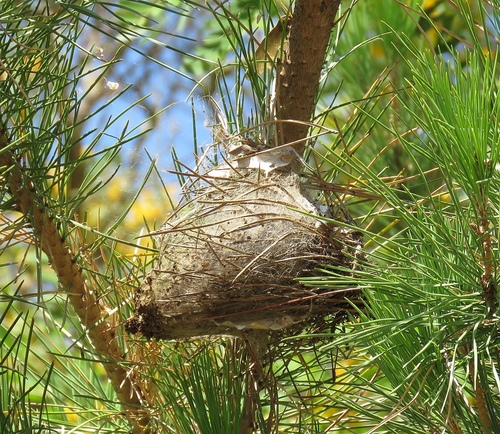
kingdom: Animalia
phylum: Arthropoda
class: Insecta
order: Lepidoptera
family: Notodontidae
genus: Thaumetopoea
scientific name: Thaumetopoea pityocampa
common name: Pine processionary
